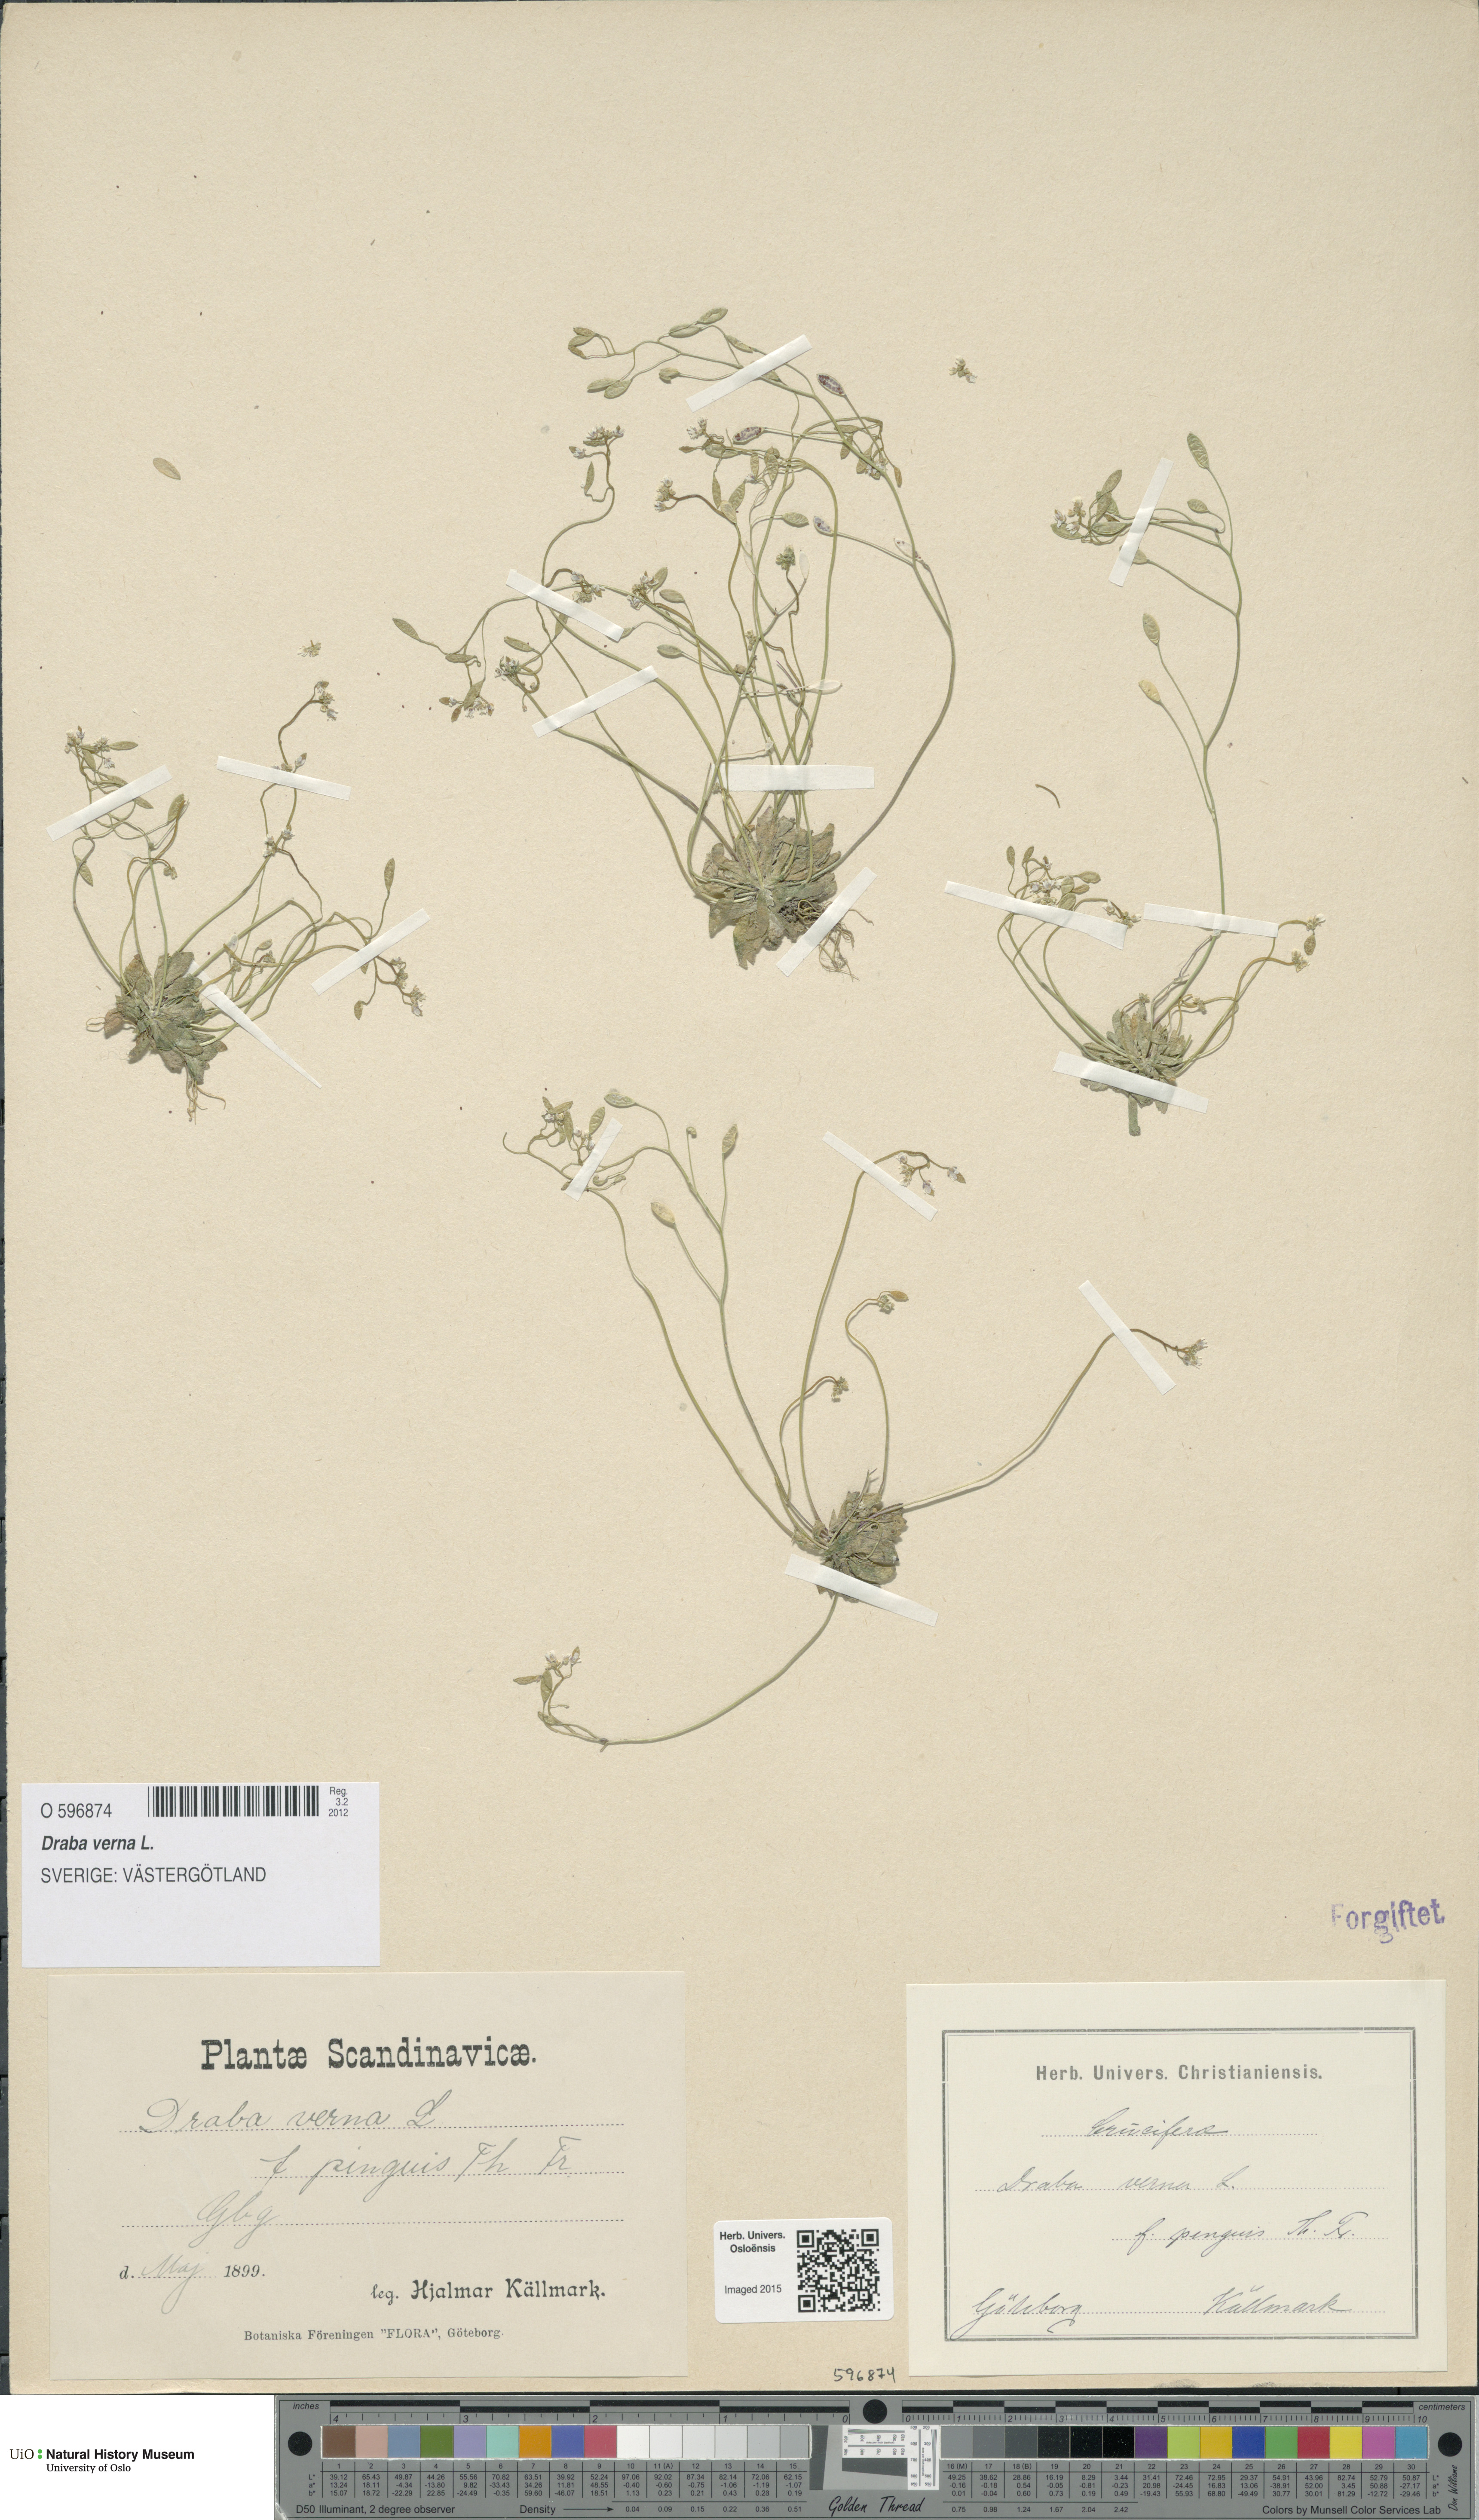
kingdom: Plantae
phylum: Tracheophyta
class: Magnoliopsida
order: Brassicales
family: Brassicaceae
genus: Draba
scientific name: Draba verna
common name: Spring draba
